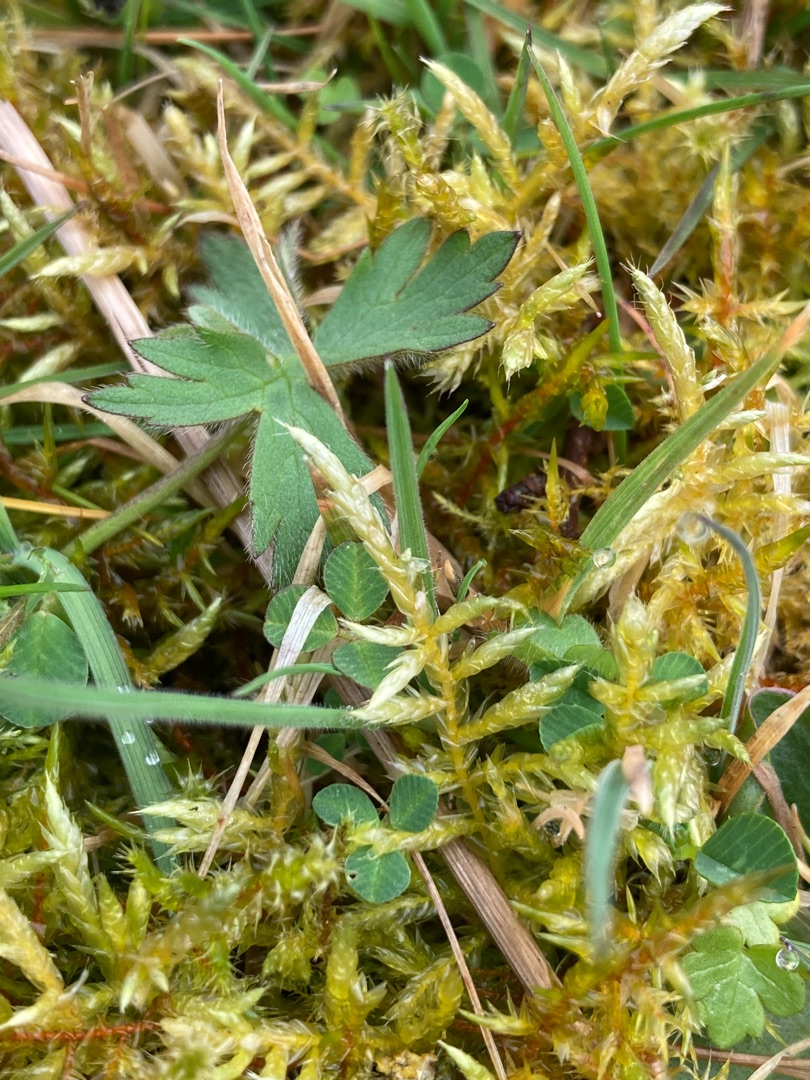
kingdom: Plantae
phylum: Bryophyta
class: Bryopsida
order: Hypnales
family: Brachytheciaceae
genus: Cirriphyllum
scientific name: Cirriphyllum piliferum
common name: Almindelig penselmos
